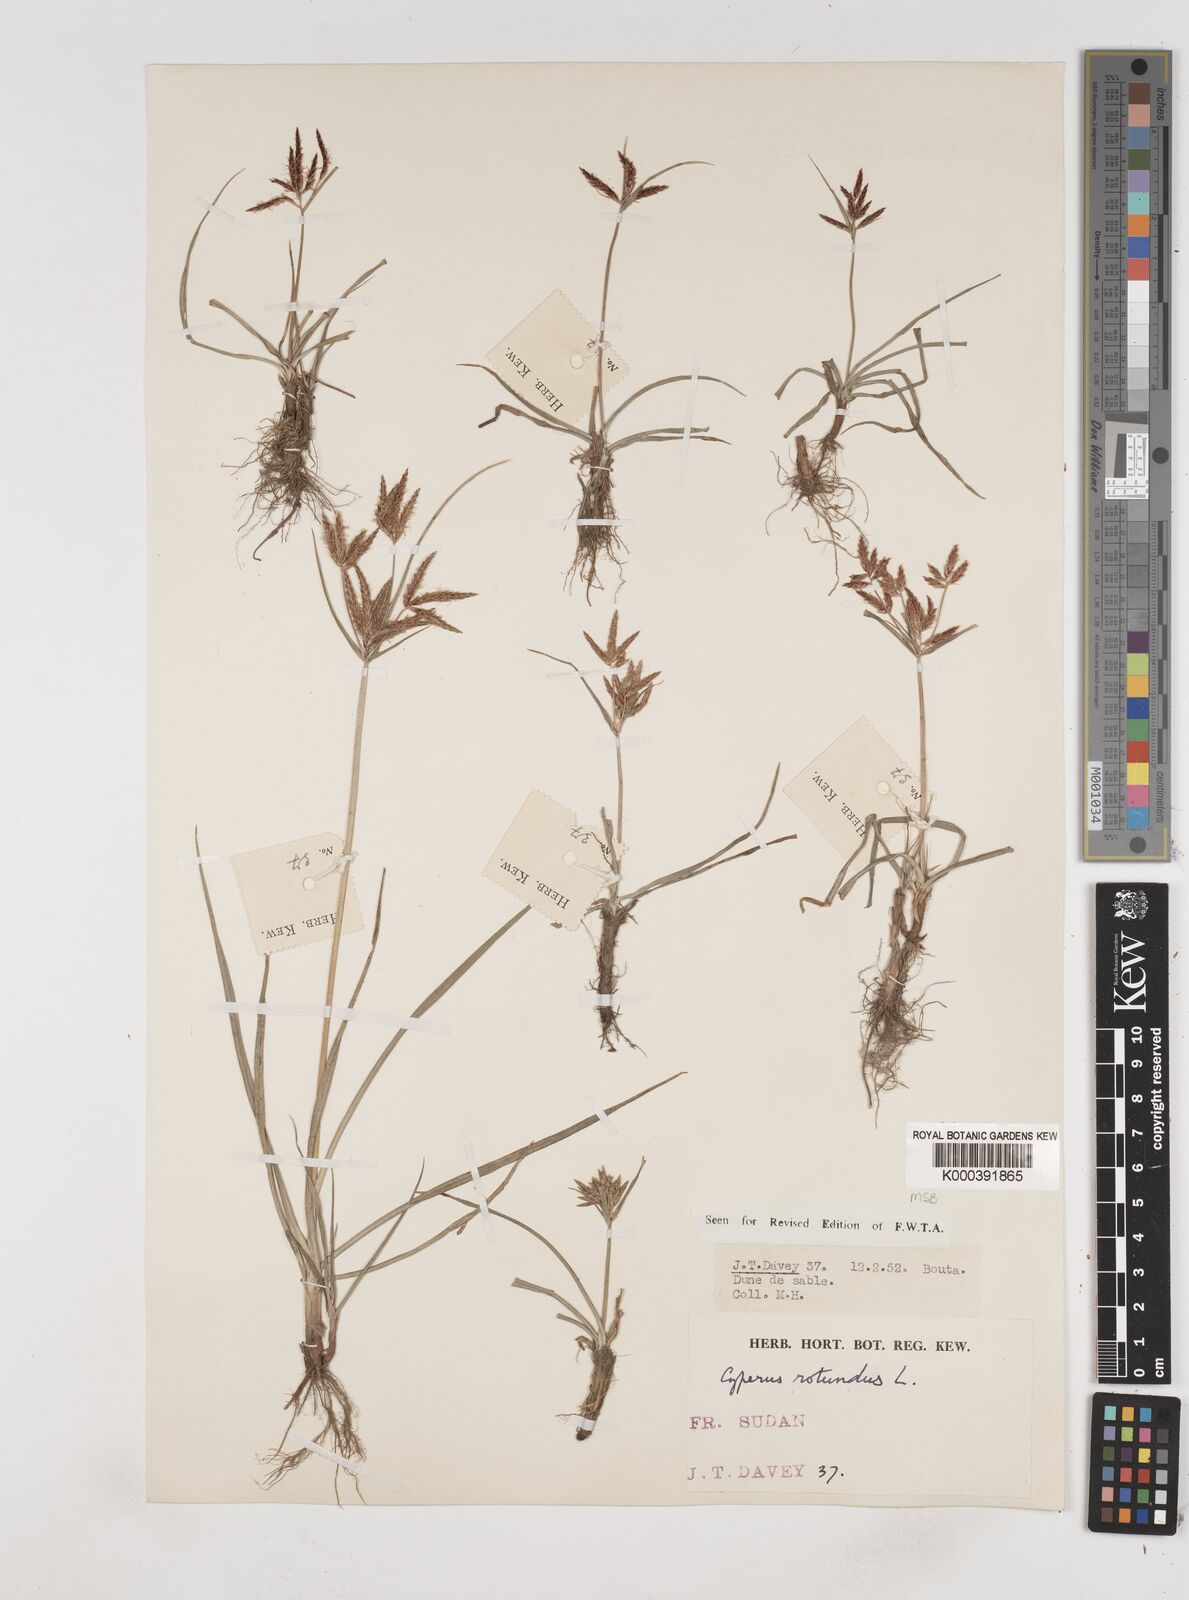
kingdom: Plantae
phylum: Tracheophyta
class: Liliopsida
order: Poales
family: Cyperaceae
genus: Cyperus
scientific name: Cyperus rotundus
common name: Nutgrass
